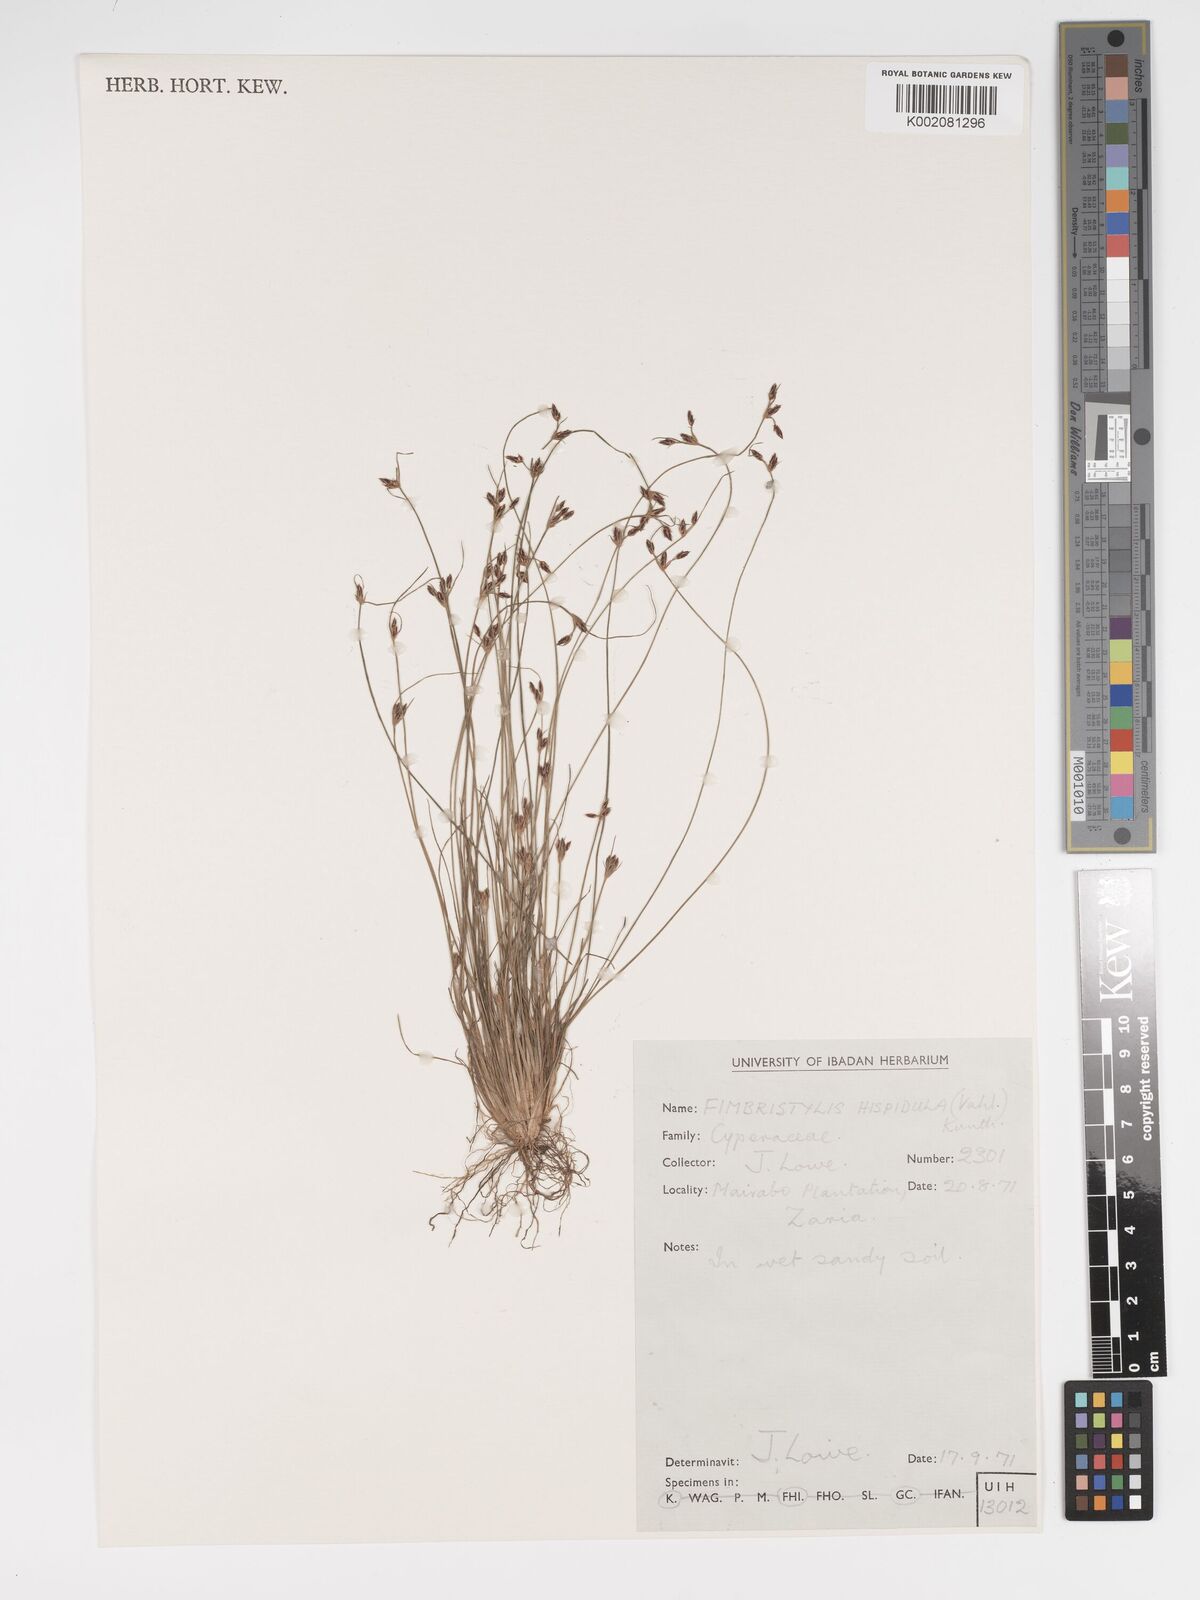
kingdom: Plantae
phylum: Tracheophyta
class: Liliopsida
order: Poales
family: Cyperaceae
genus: Bulbostylis
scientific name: Bulbostylis hispidula
